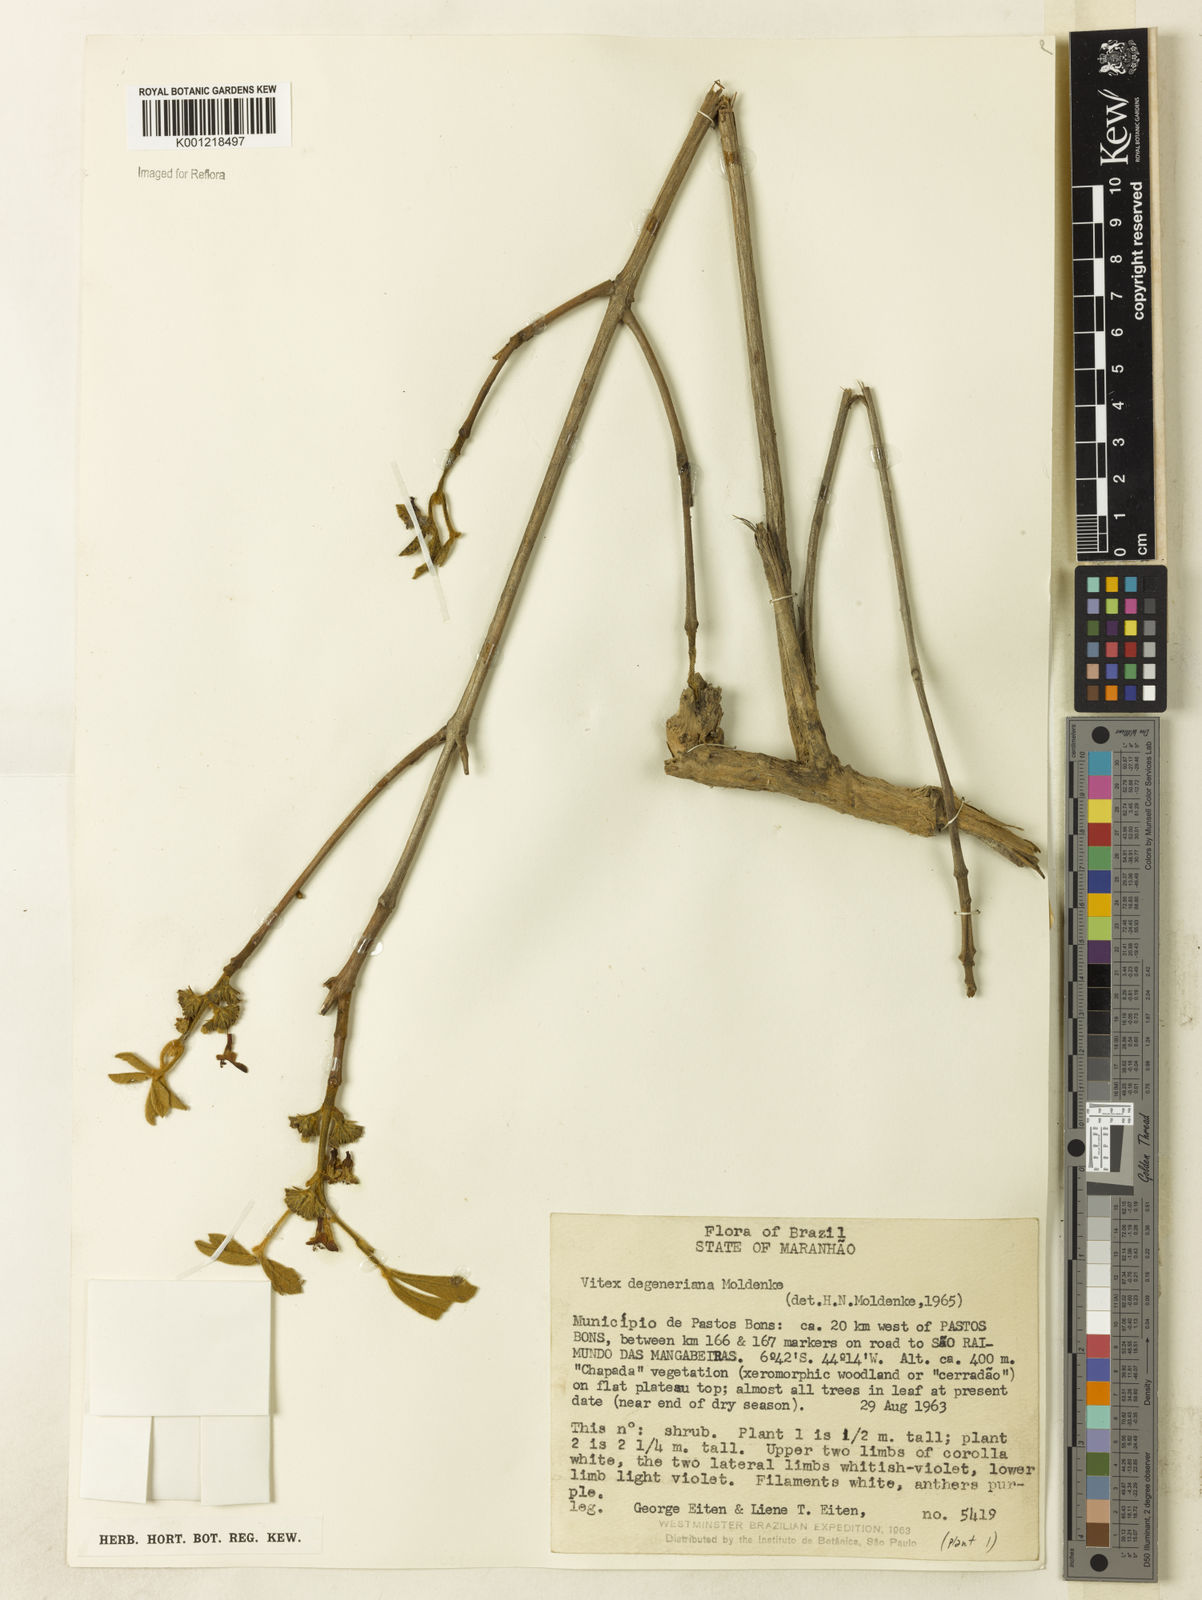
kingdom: Plantae
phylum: Tracheophyta
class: Magnoliopsida
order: Lamiales
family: Lamiaceae
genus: Vitex
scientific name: Vitex degeneriana
